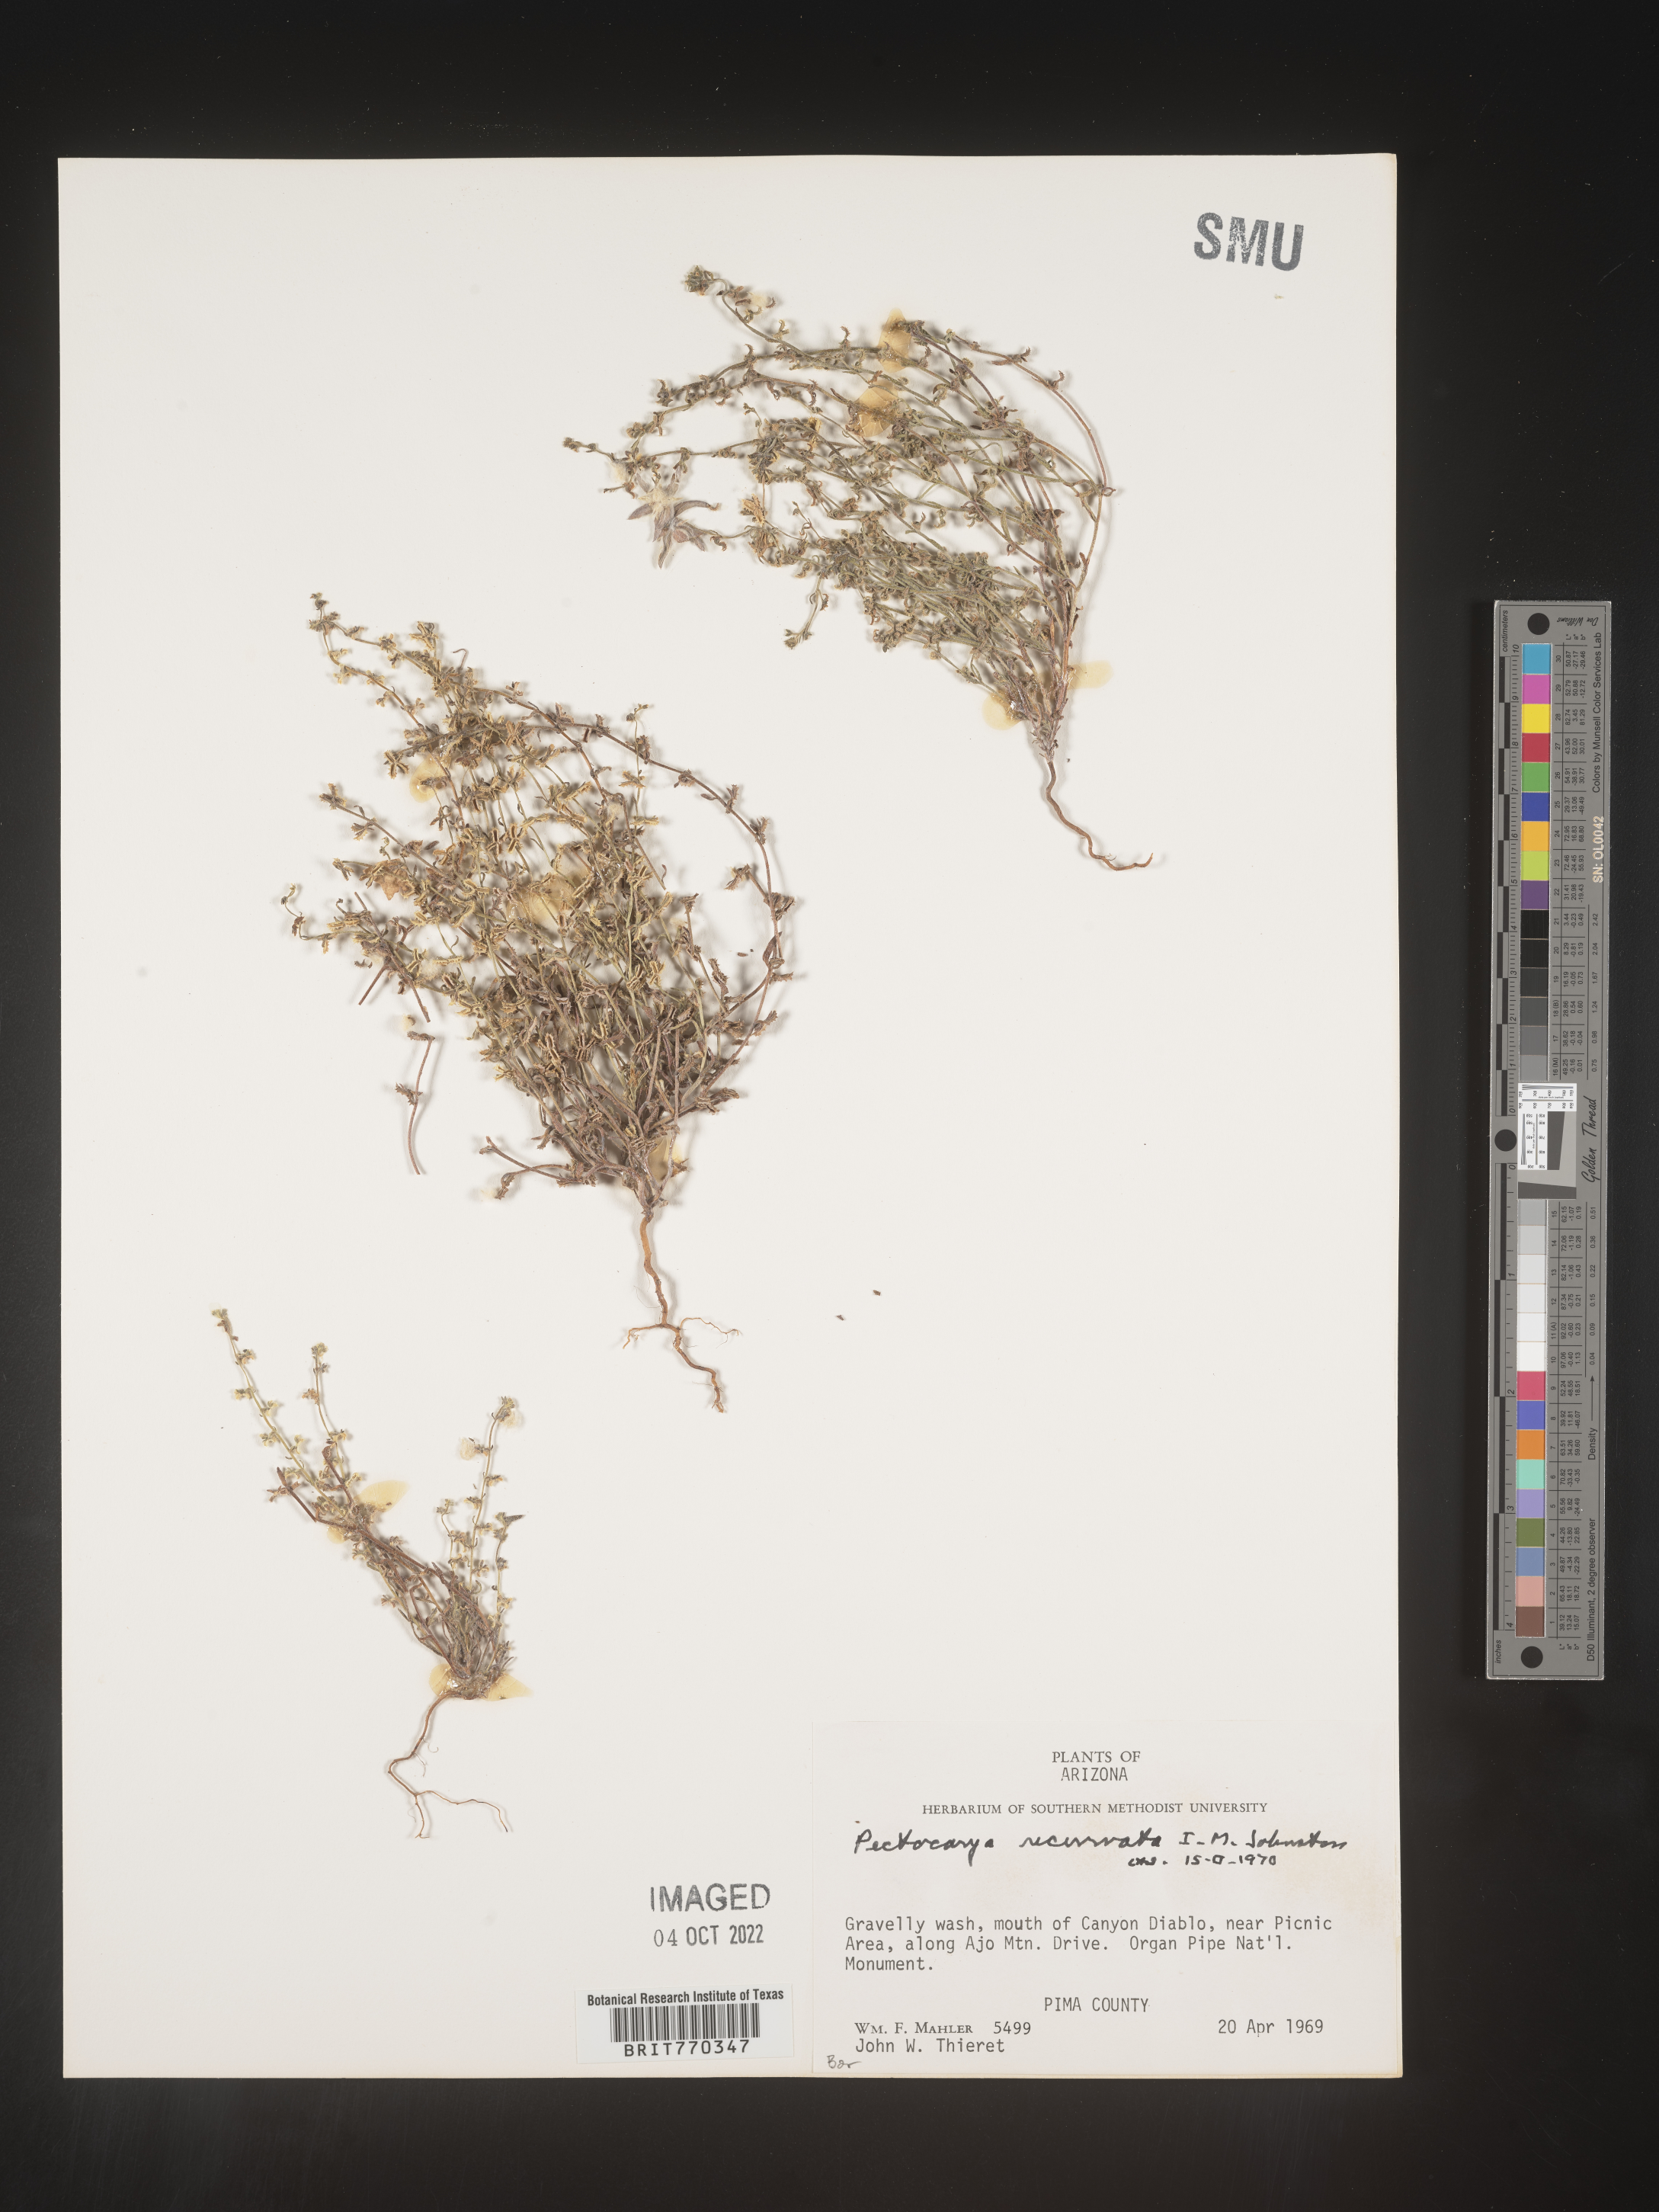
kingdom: Plantae
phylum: Tracheophyta
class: Magnoliopsida
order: Boraginales
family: Boraginaceae
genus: Pectocarya
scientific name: Pectocarya
